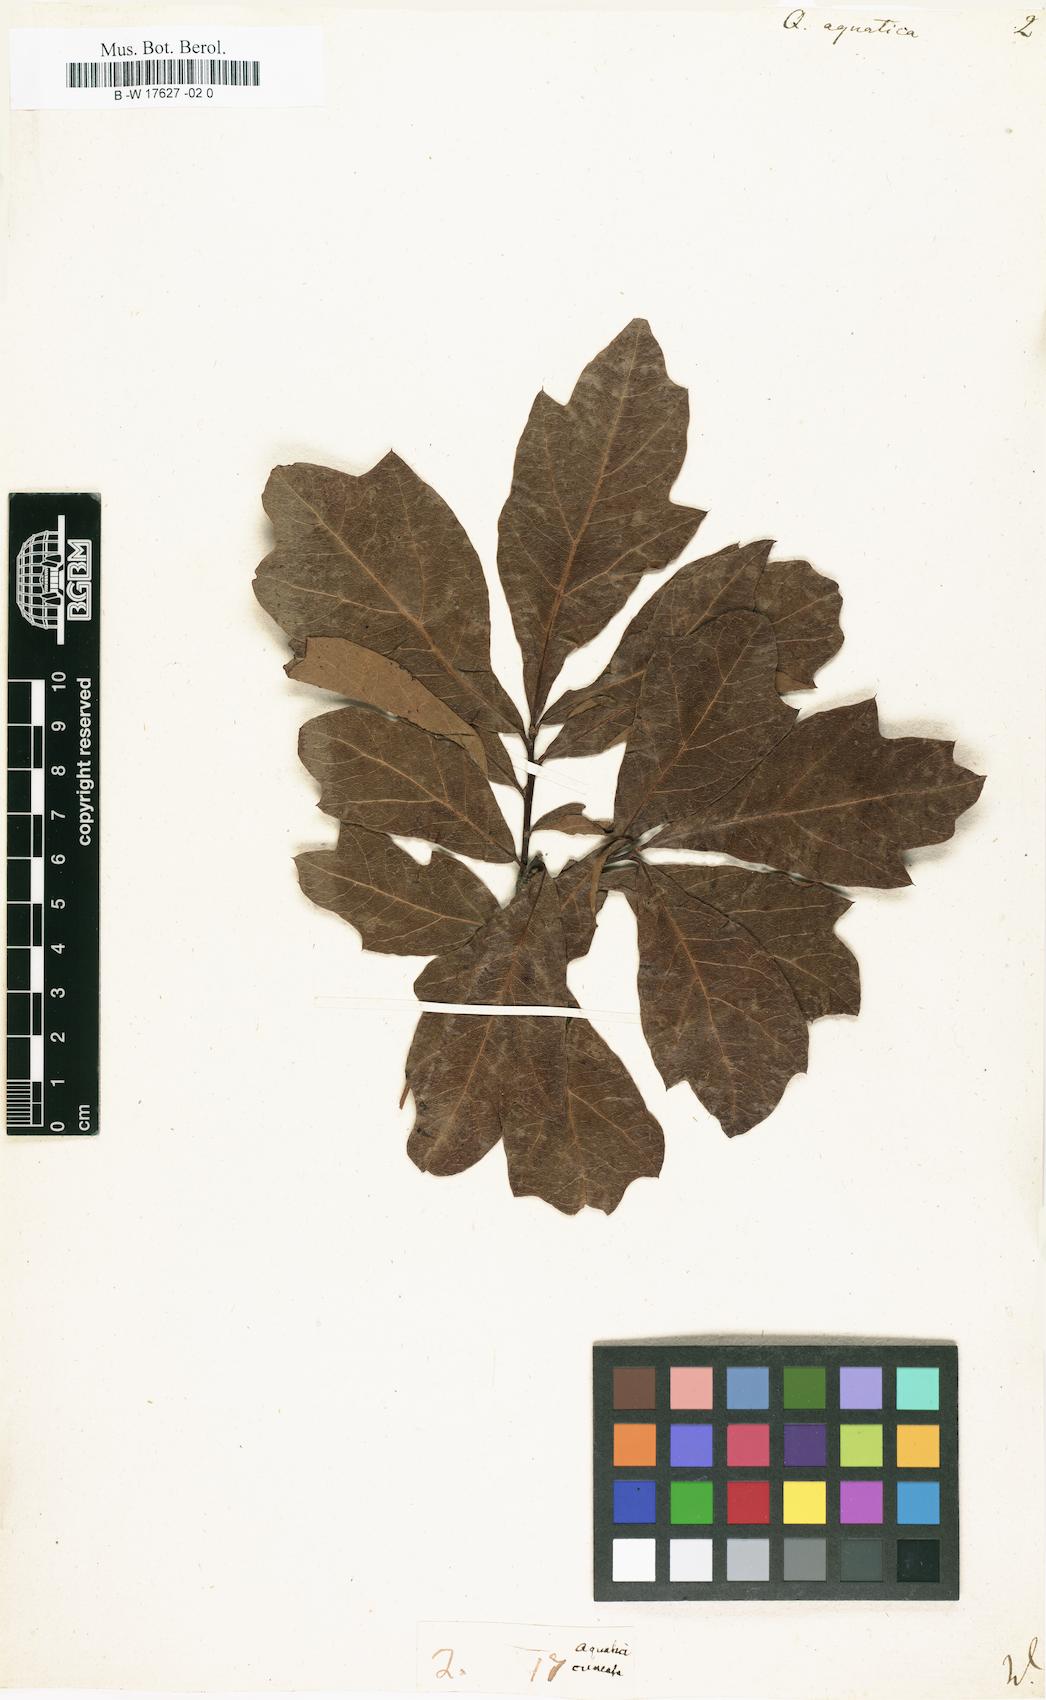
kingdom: Plantae
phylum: Tracheophyta
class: Magnoliopsida
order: Fagales
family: Fagaceae
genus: Quercus
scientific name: Quercus nigra
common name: Water oak
